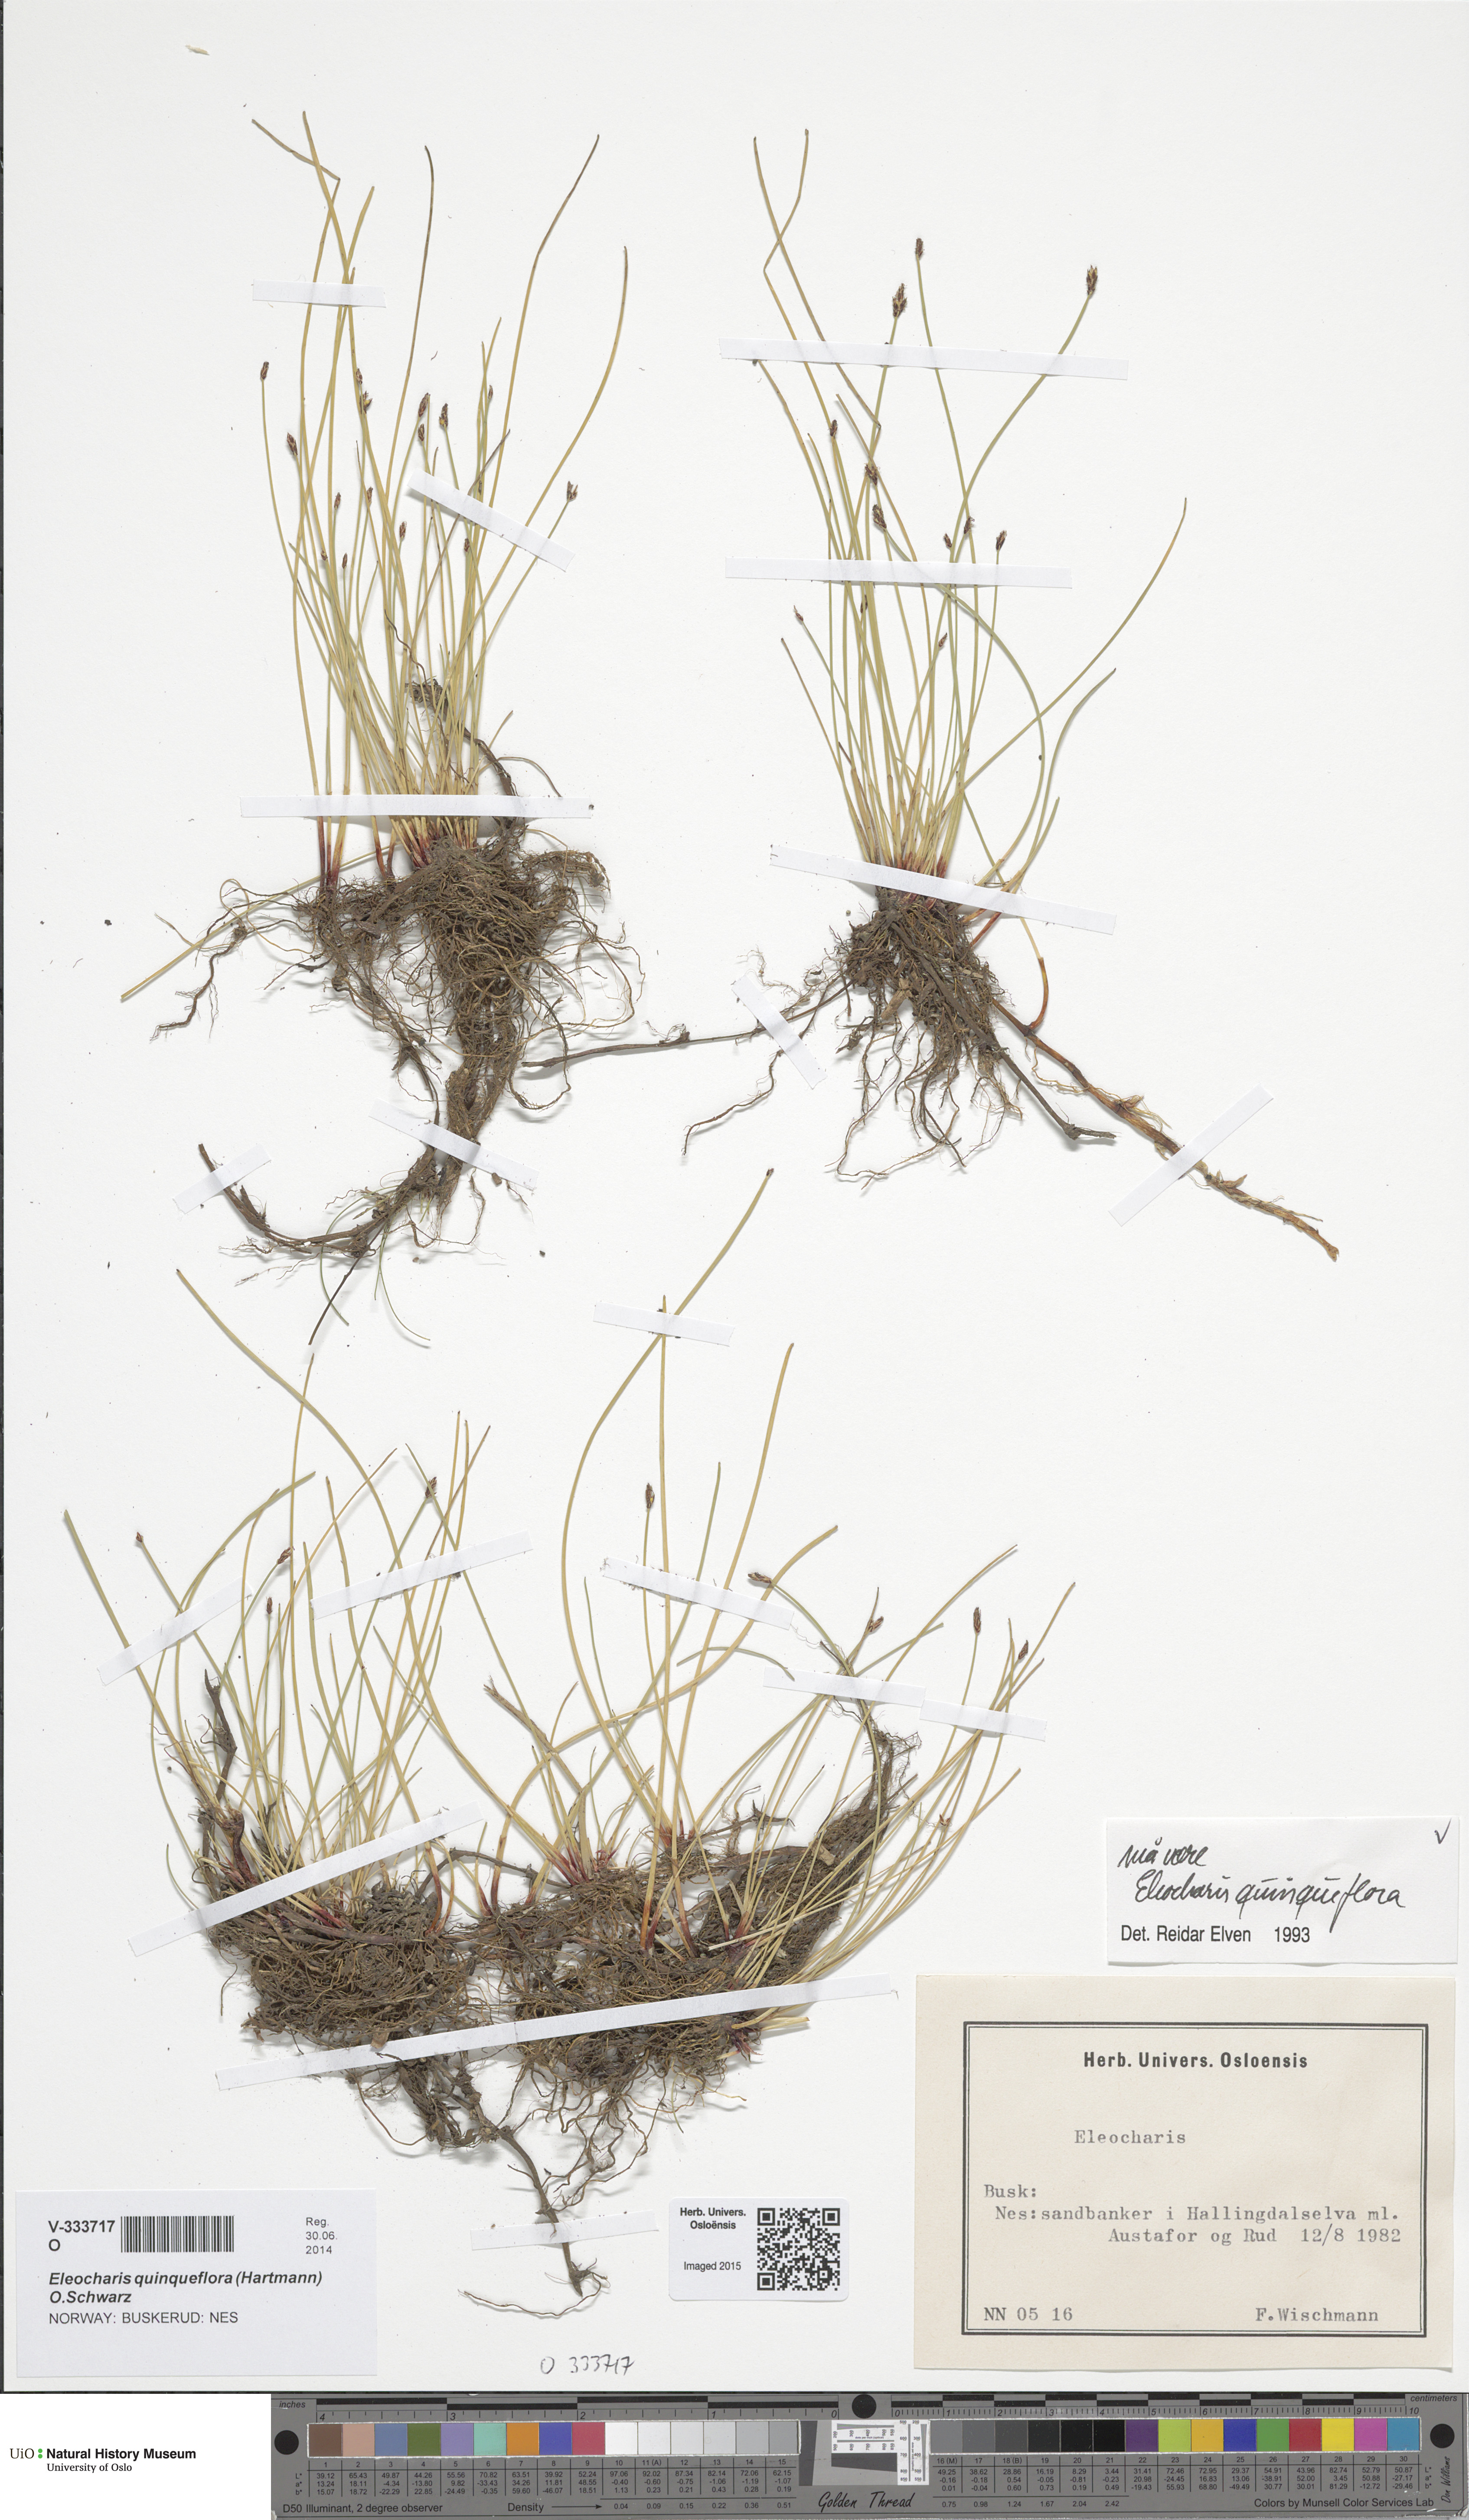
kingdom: Plantae
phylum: Tracheophyta
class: Liliopsida
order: Poales
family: Cyperaceae
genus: Eleocharis
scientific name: Eleocharis palustris
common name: Common spike-rush
